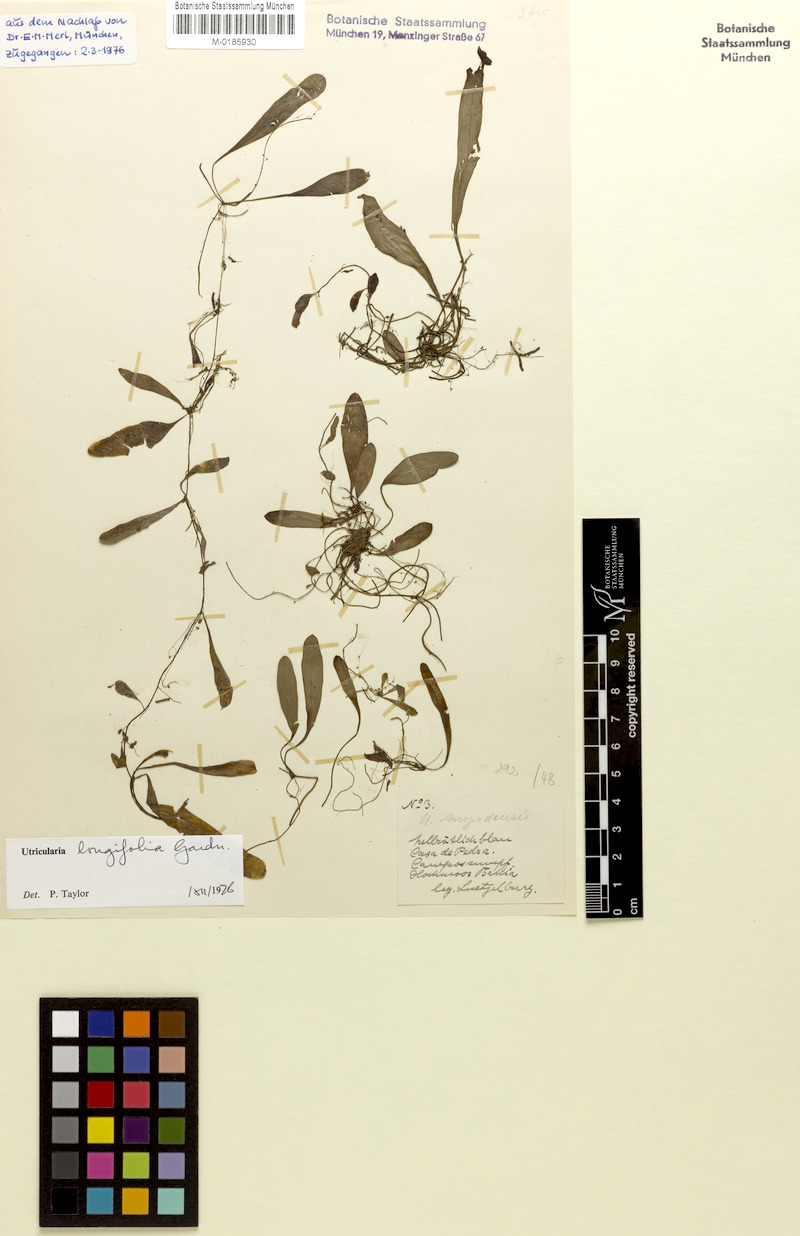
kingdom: Plantae
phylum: Tracheophyta
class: Magnoliopsida
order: Lamiales
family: Lentibulariaceae
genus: Utricularia
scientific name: Utricularia longifolia
